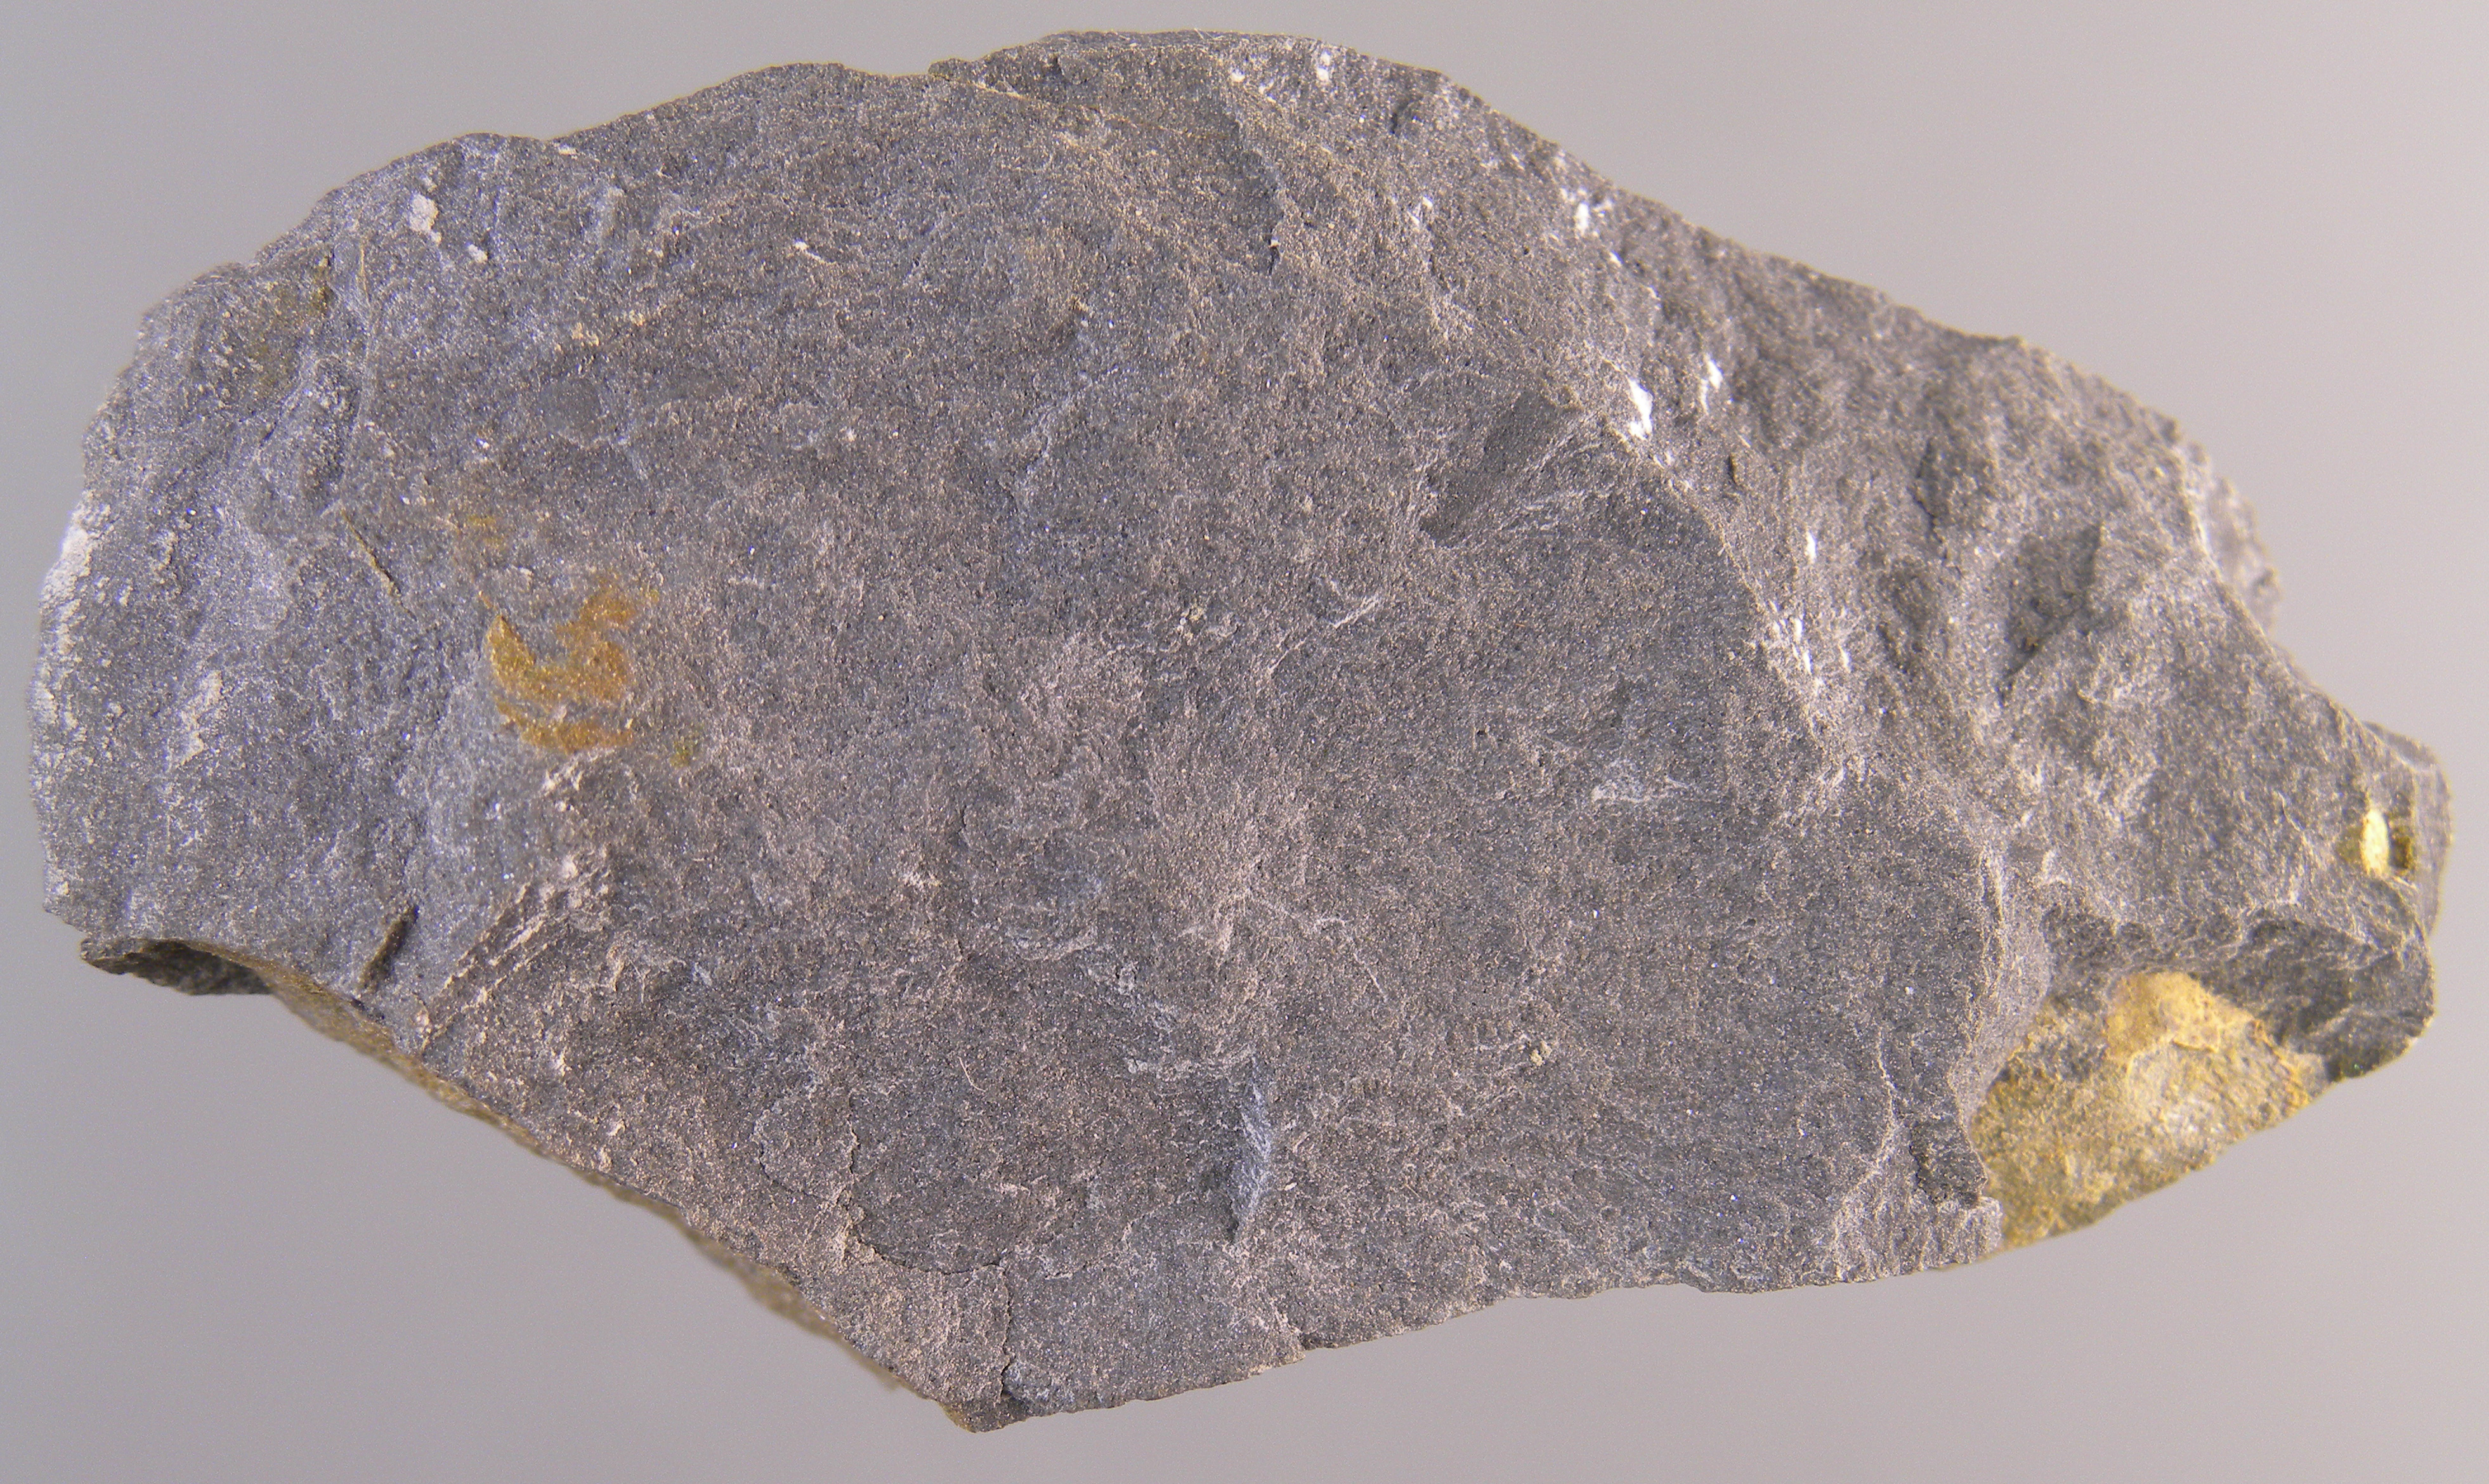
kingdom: Animalia
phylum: Echinodermata
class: Crinoidea
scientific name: Crinoidea
